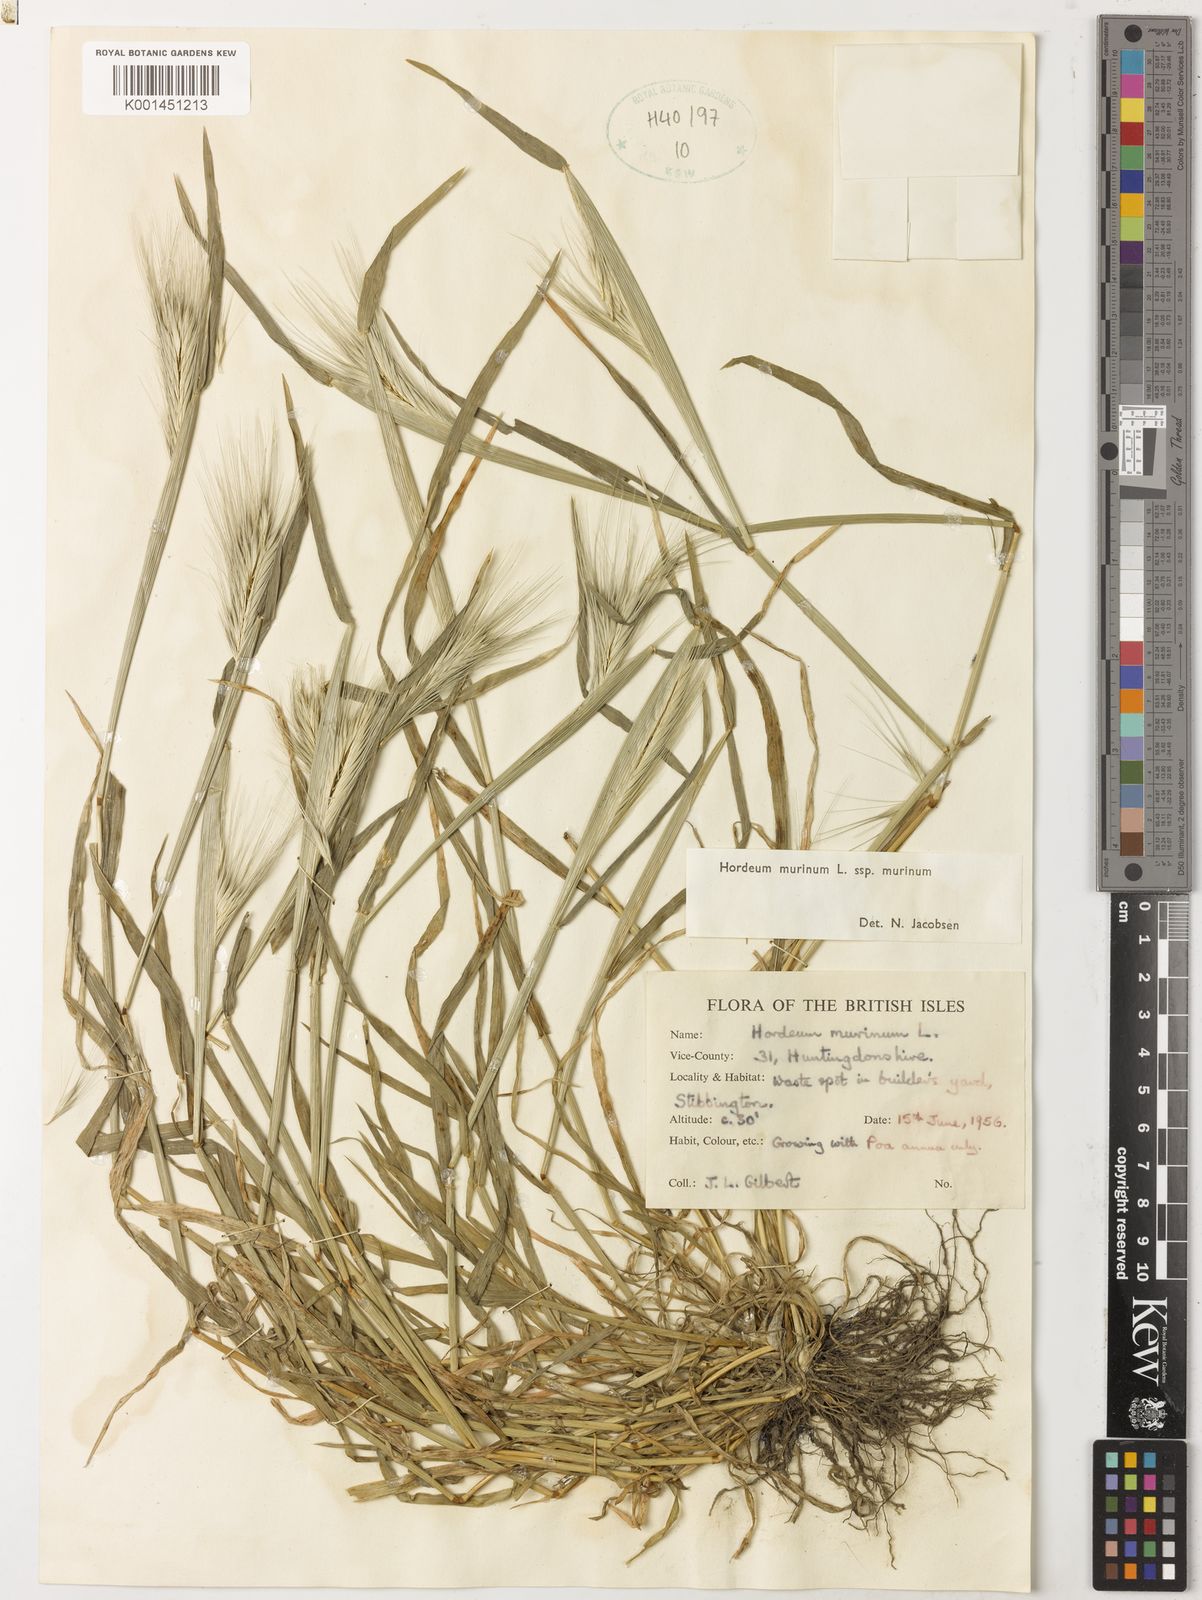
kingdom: Plantae
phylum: Tracheophyta
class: Liliopsida
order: Poales
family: Poaceae
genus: Hordeum
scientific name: Hordeum murinum
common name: Wall barley
